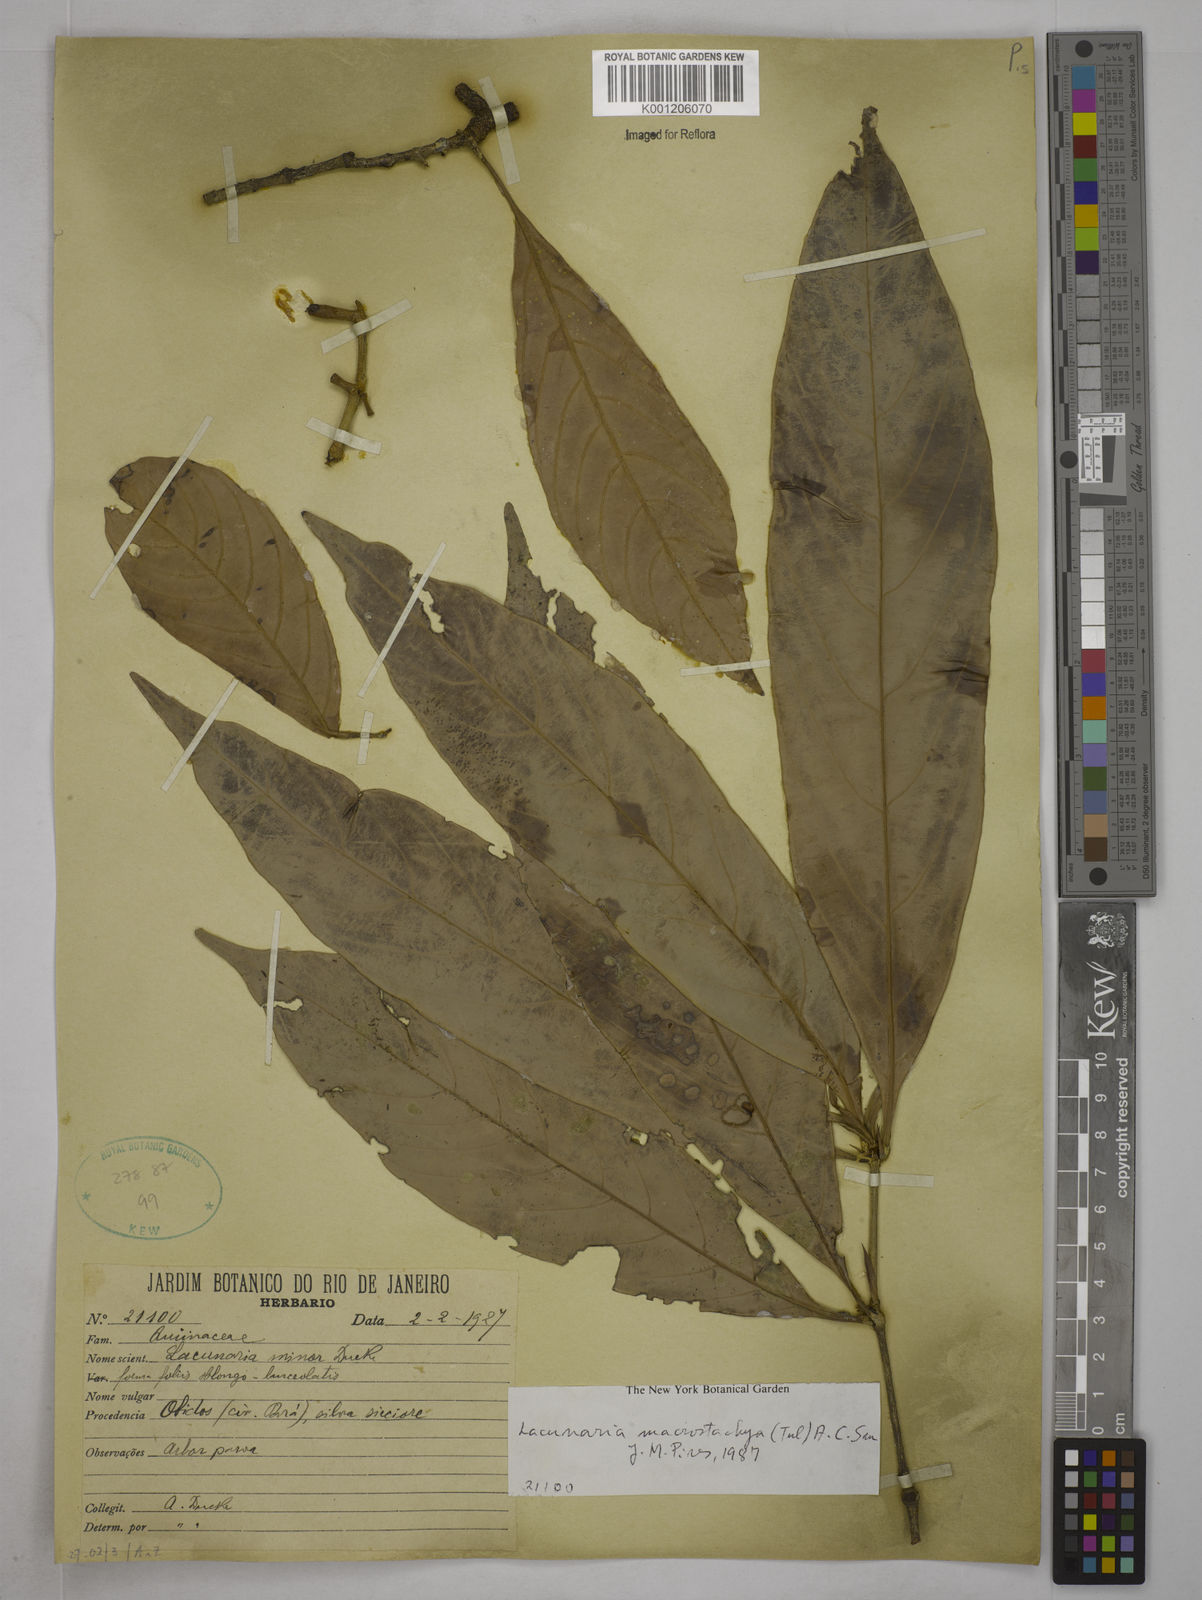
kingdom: Plantae
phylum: Tracheophyta
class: Magnoliopsida
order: Malpighiales
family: Quiinaceae
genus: Lacunaria
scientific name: Lacunaria macrostachya
